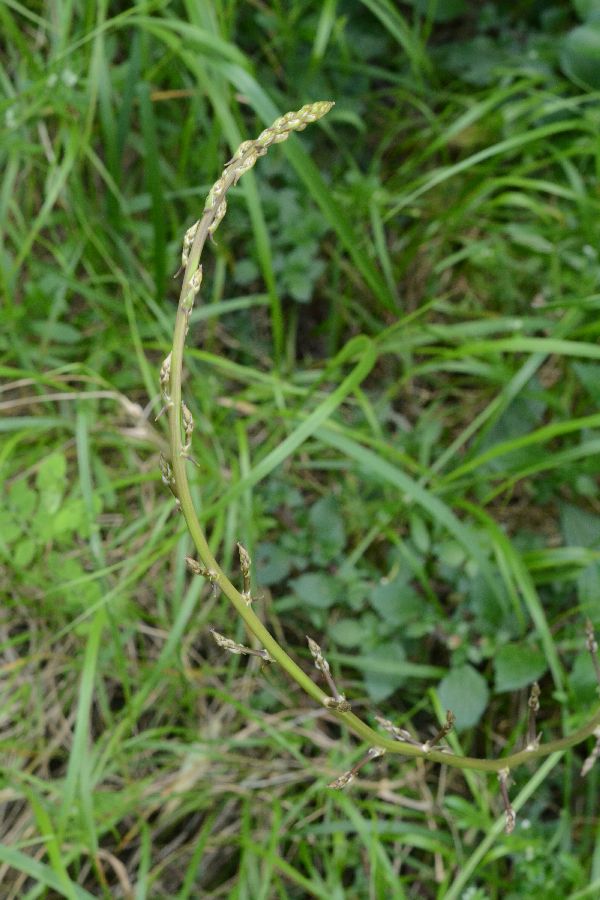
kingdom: Plantae
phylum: Tracheophyta
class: Liliopsida
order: Asparagales
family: Asparagaceae
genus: Asparagus
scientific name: Asparagus aphyllus
